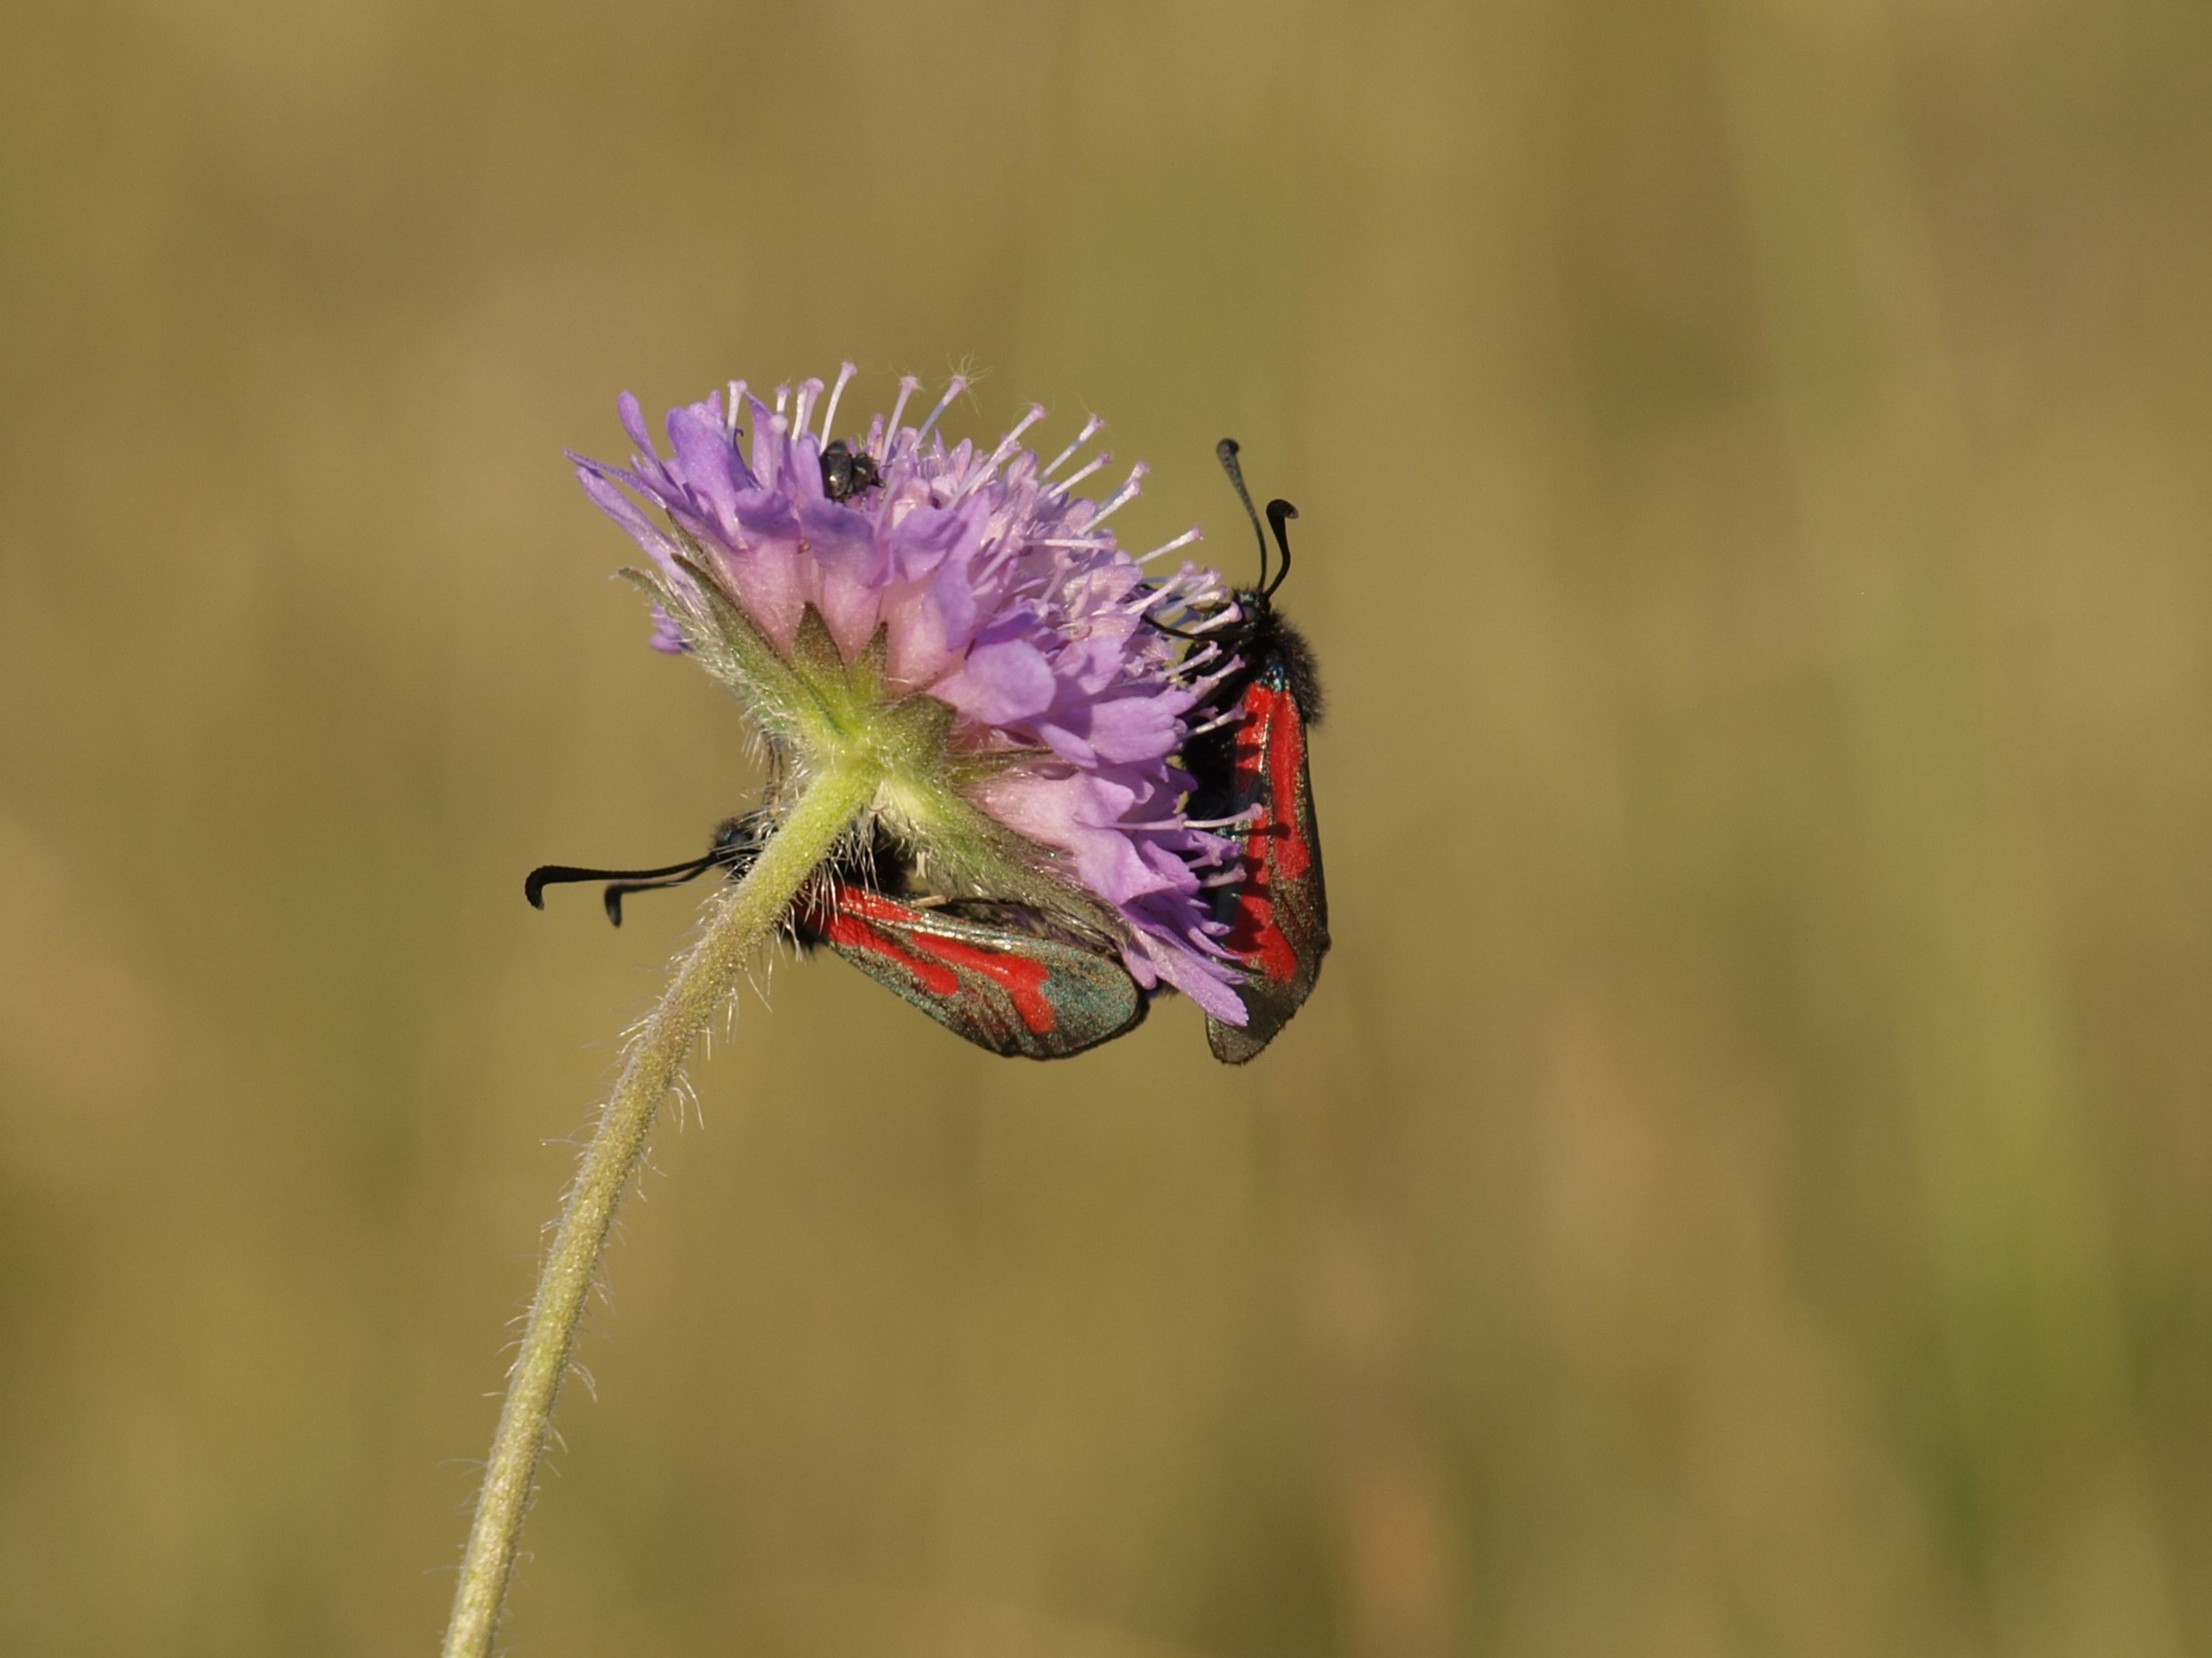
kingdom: Animalia
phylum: Arthropoda
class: Insecta
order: Lepidoptera
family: Zygaenidae
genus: Zygaena
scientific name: Zygaena minos
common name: Pimpernelkøllesværmer
